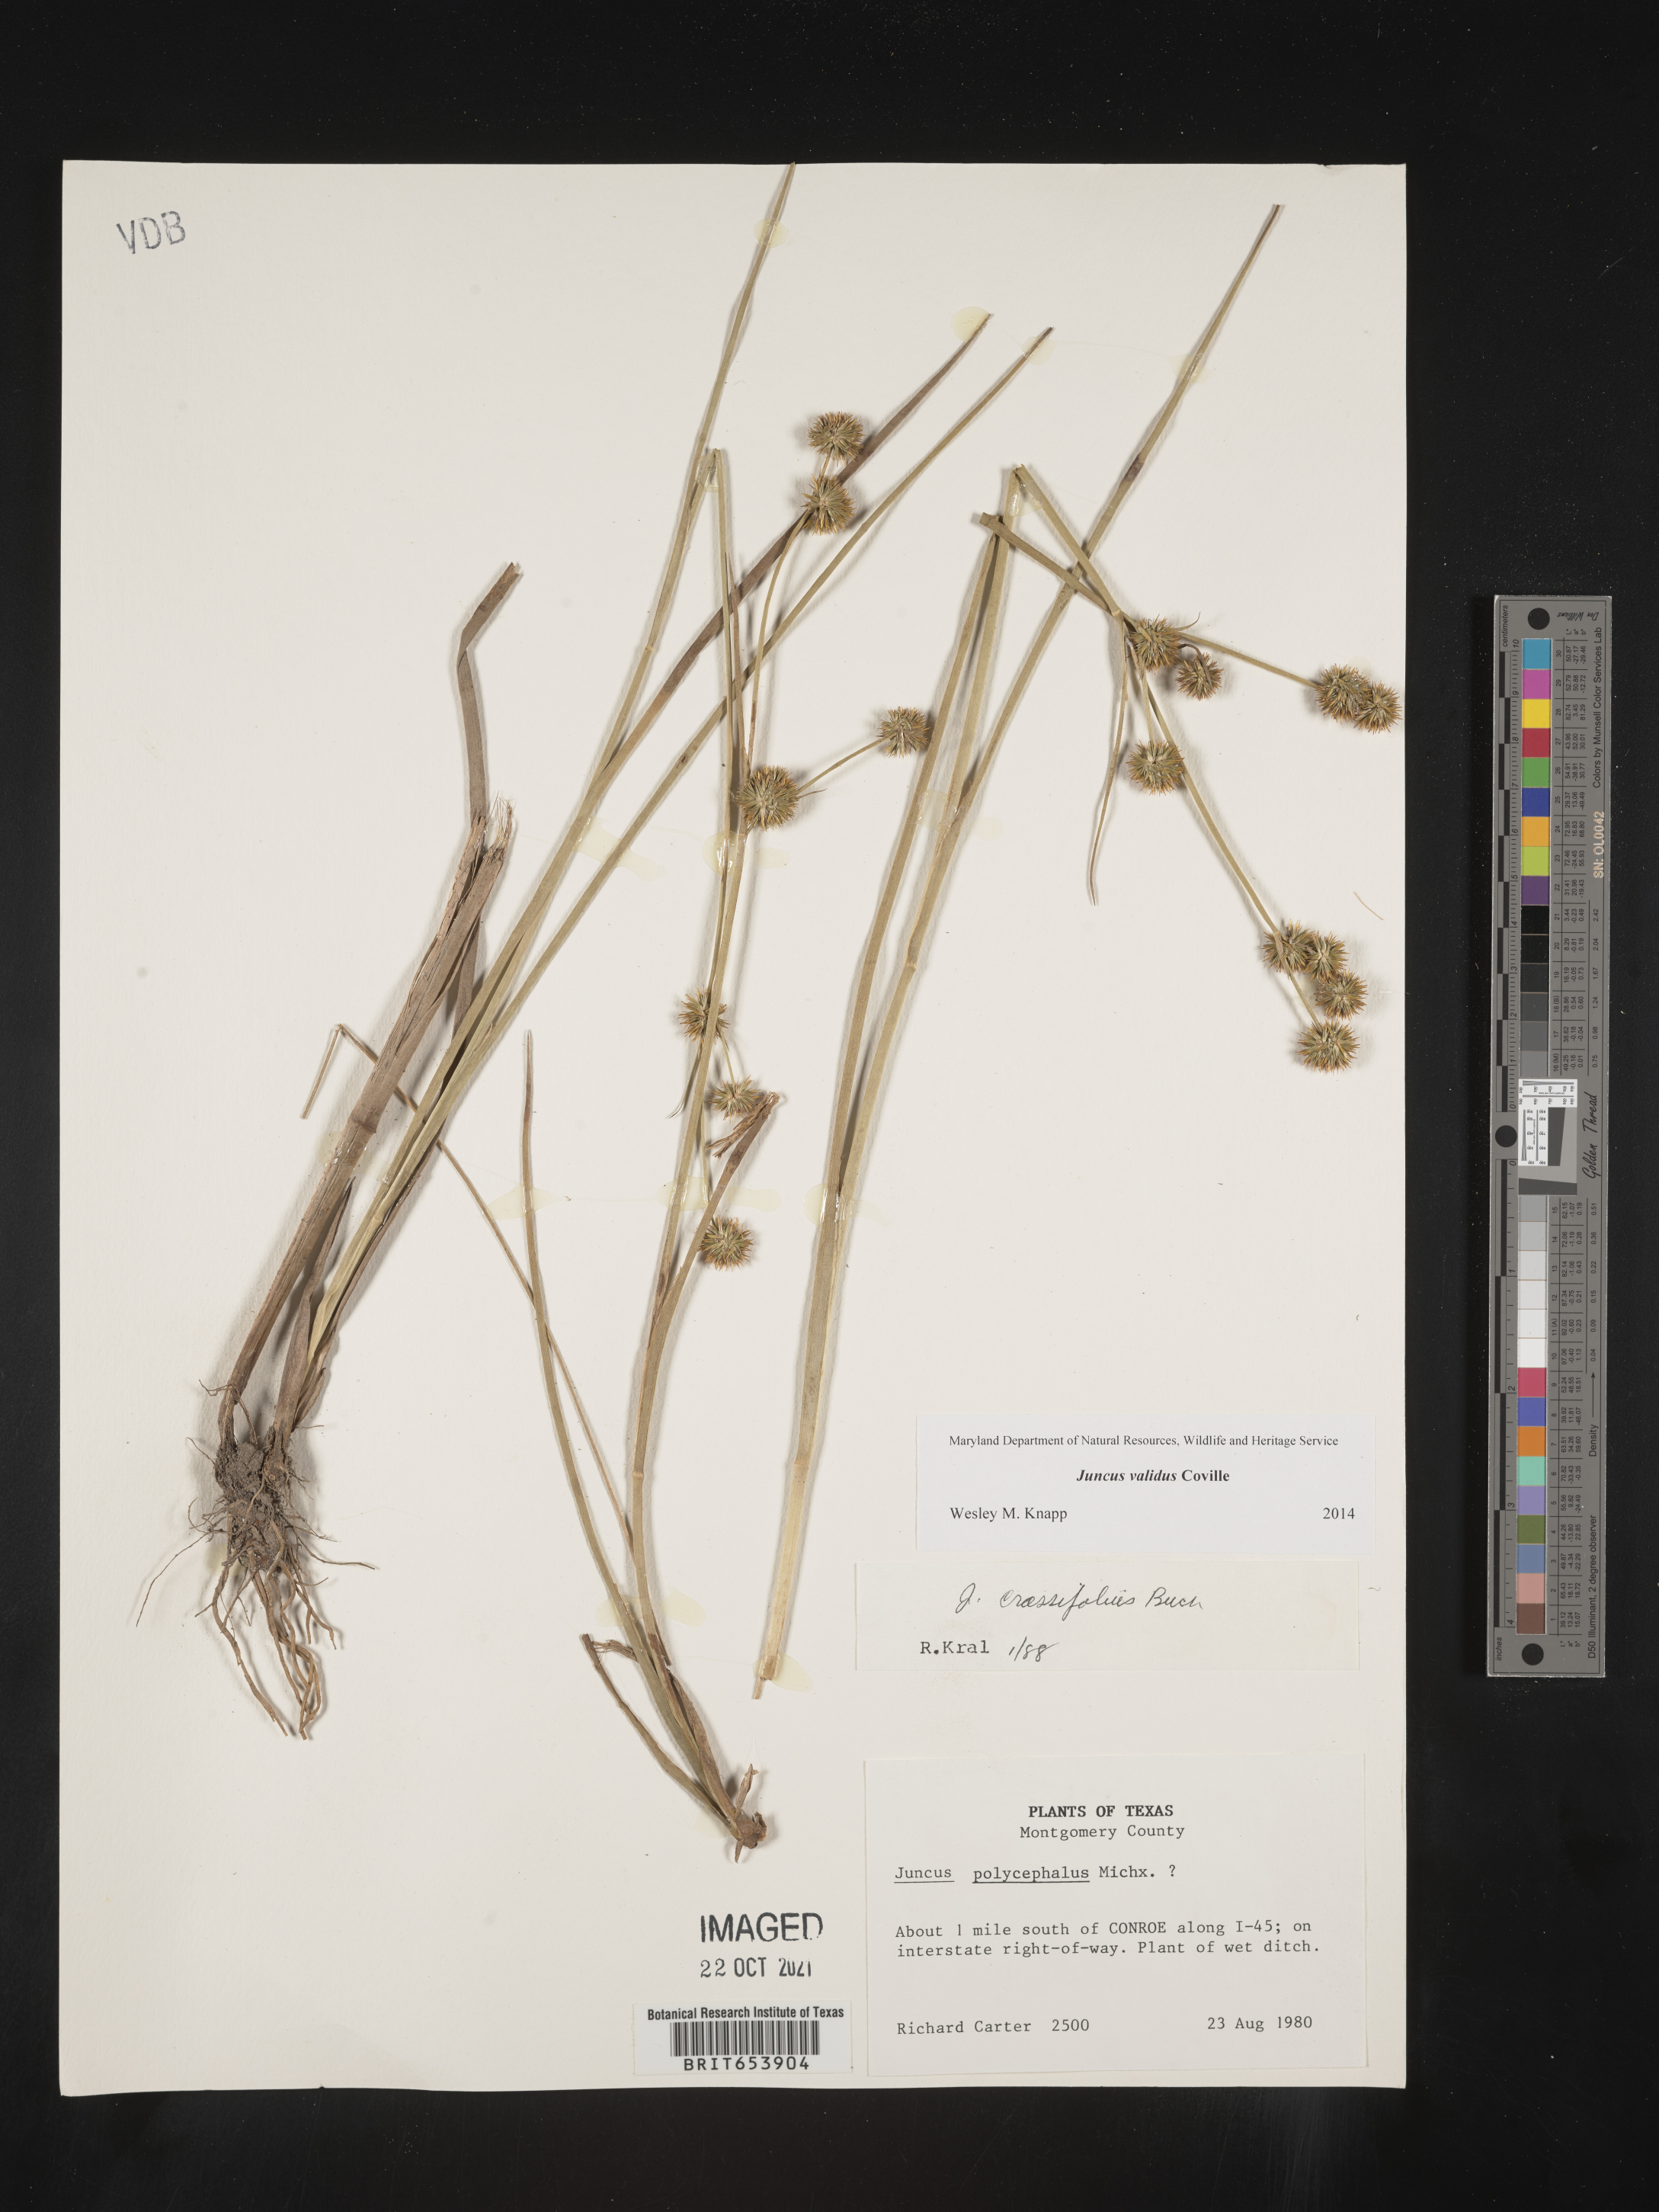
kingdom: Plantae
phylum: Tracheophyta
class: Liliopsida
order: Poales
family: Juncaceae
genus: Juncus
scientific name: Juncus validus
